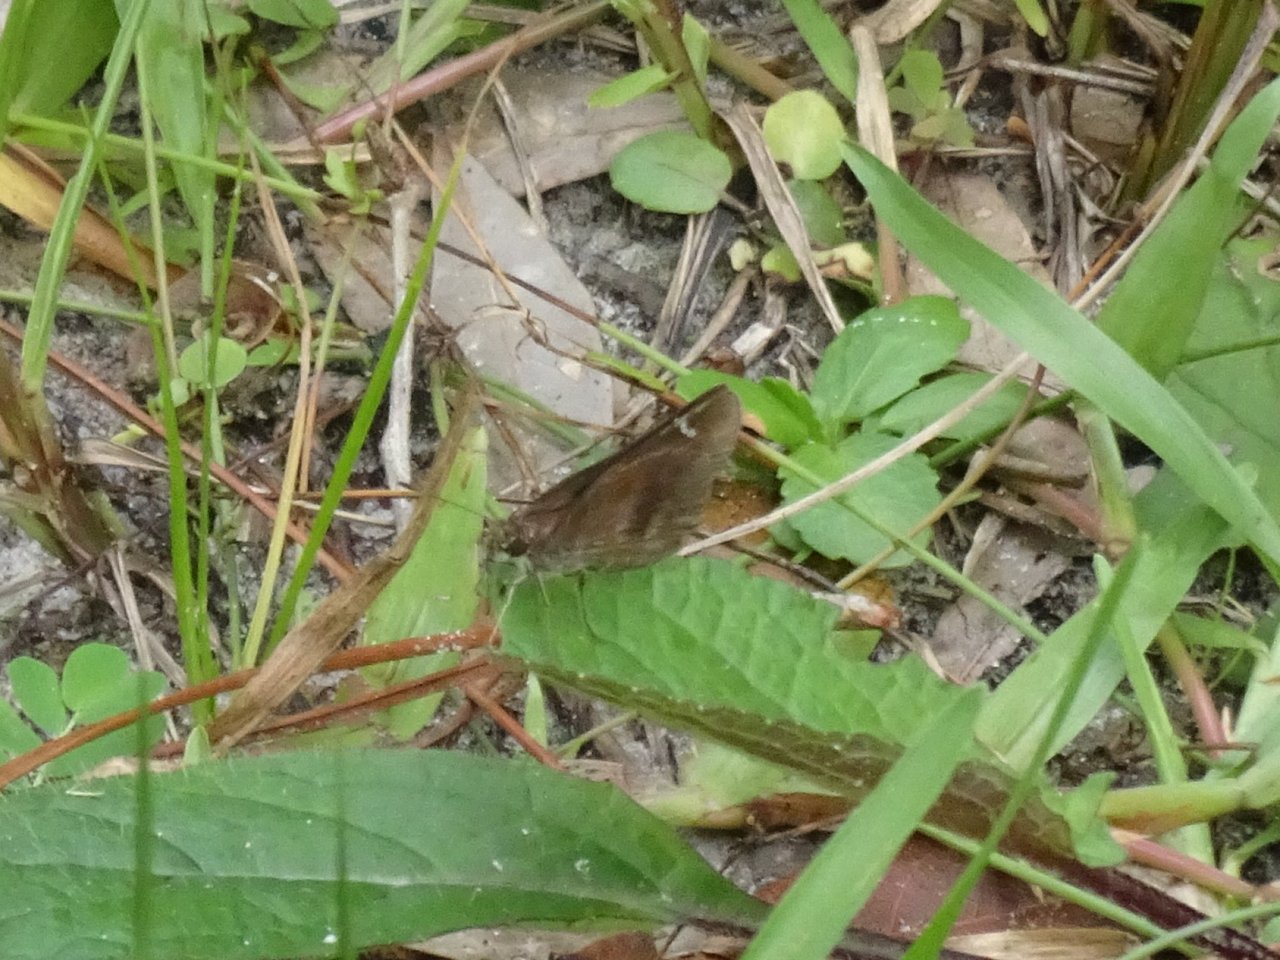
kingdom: Animalia
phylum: Arthropoda
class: Insecta
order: Lepidoptera
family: Hesperiidae
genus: Lerema
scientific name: Lerema accius
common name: Clouded Skipper
